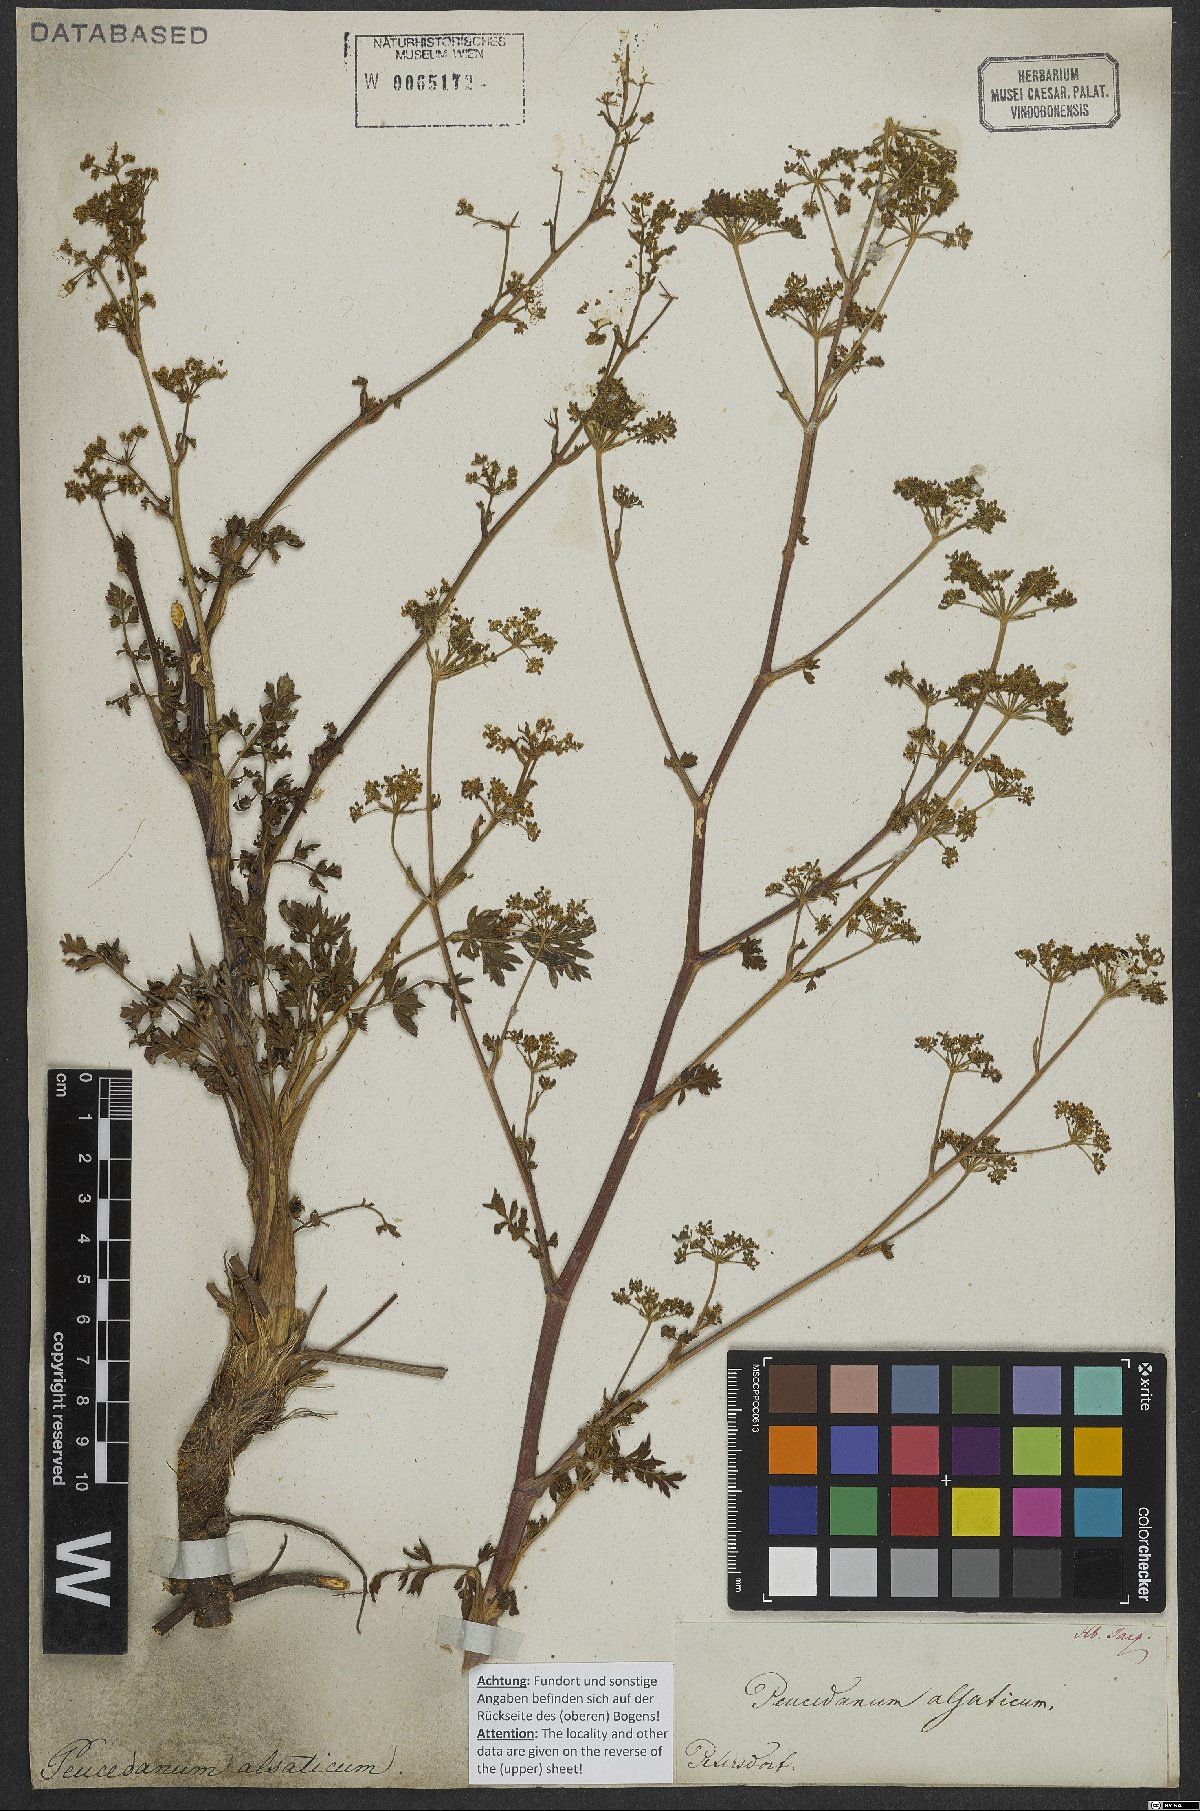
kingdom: Plantae
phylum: Tracheophyta
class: Magnoliopsida
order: Apiales
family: Apiaceae
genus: Xanthoselinum
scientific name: Xanthoselinum alsaticum
